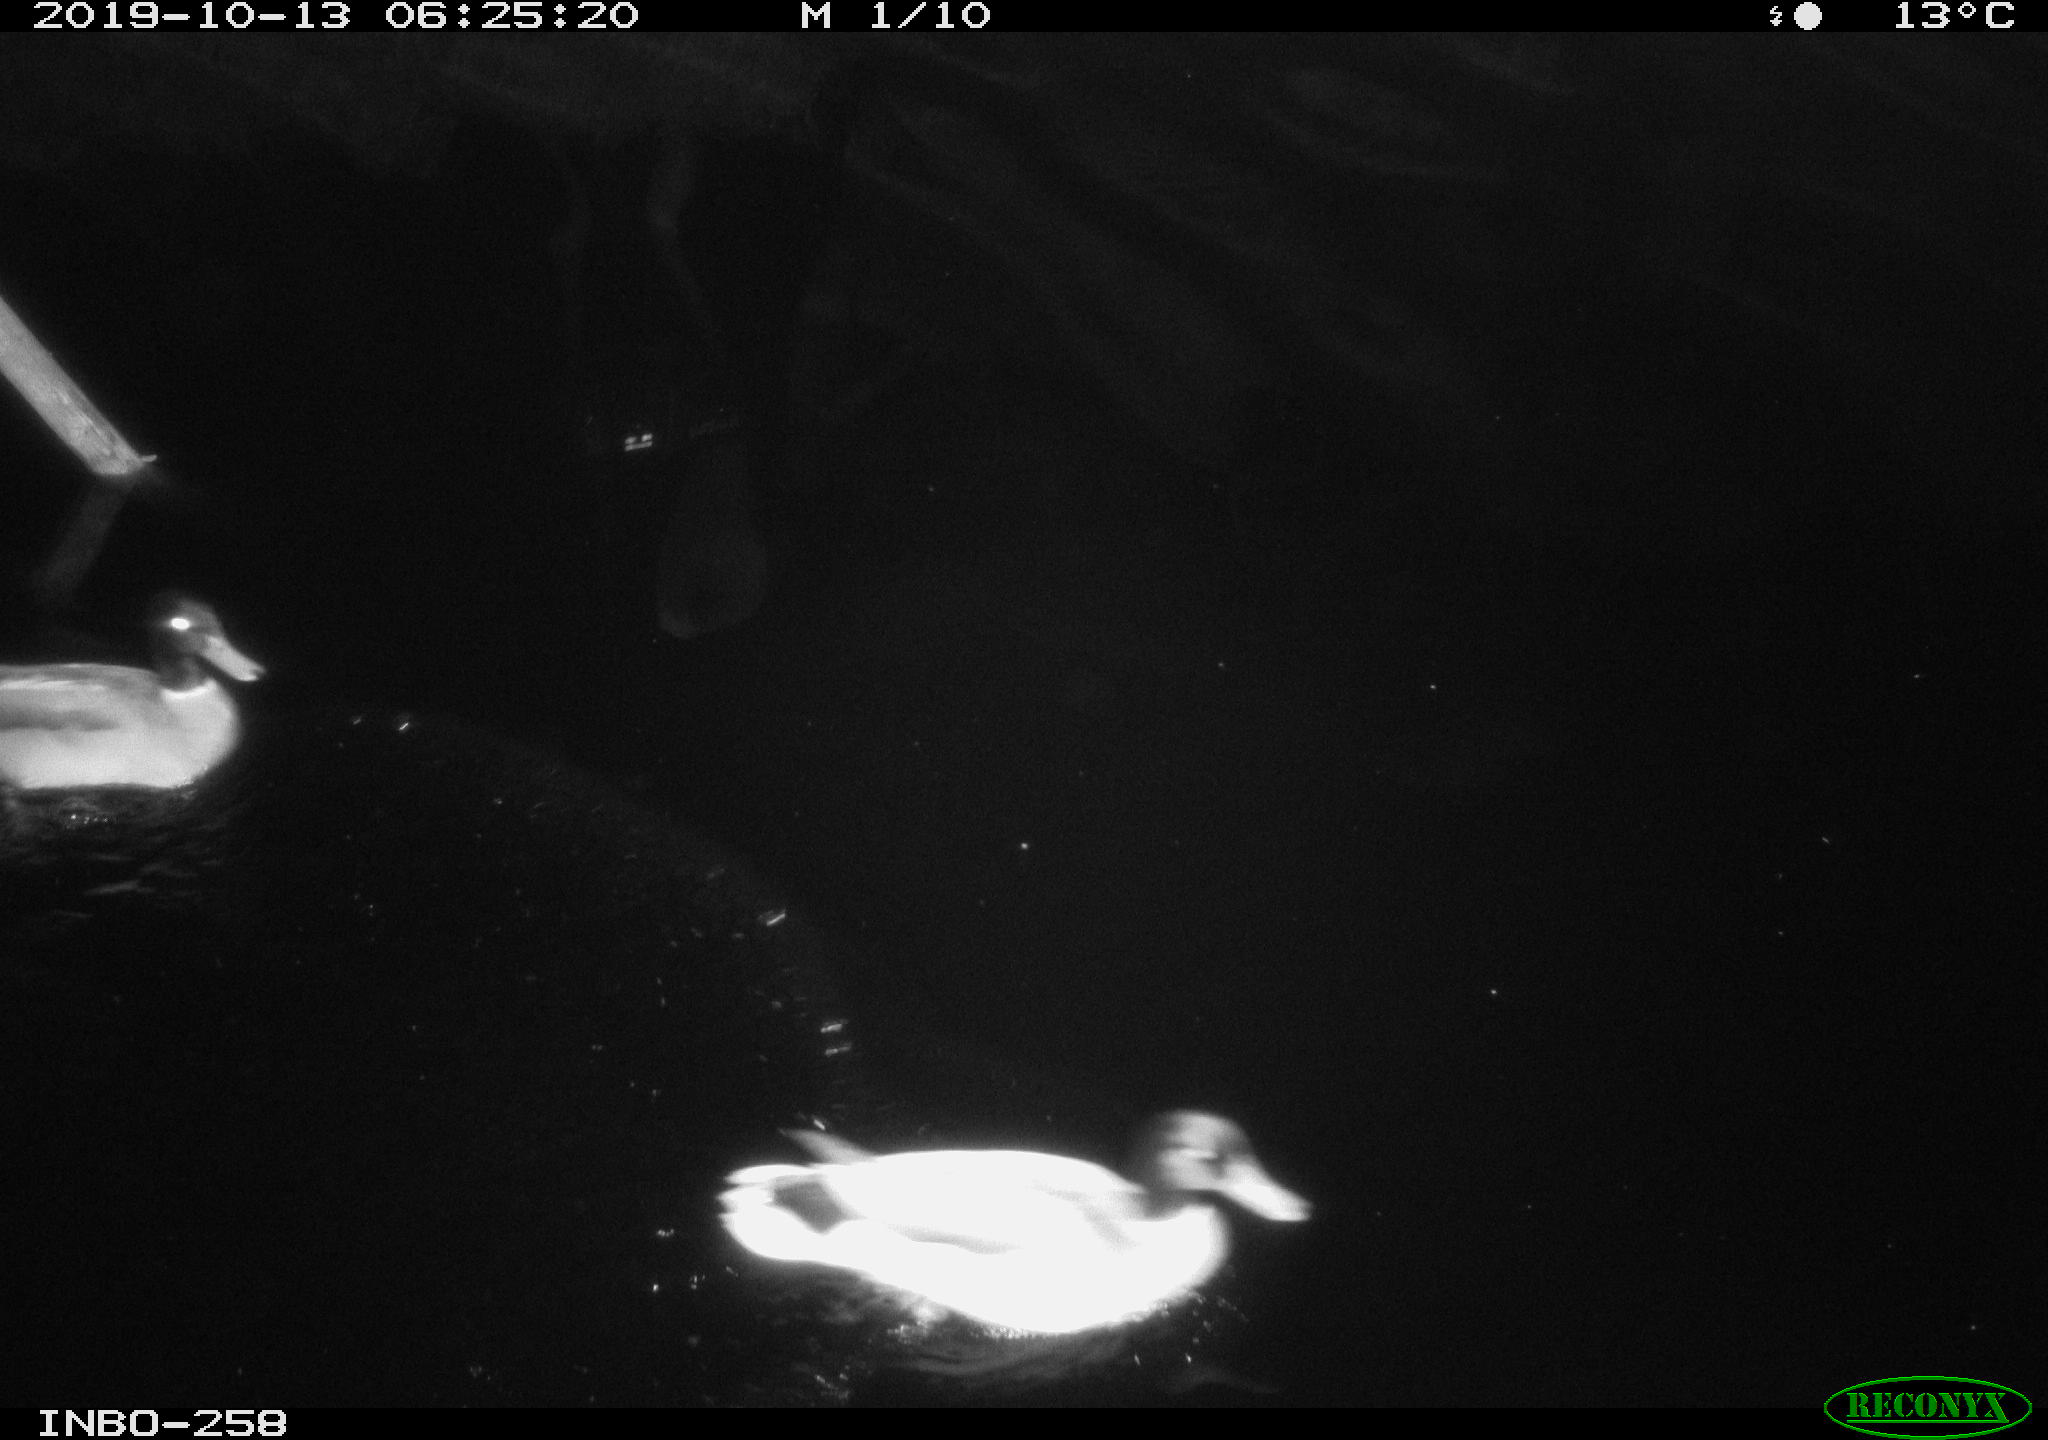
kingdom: Animalia
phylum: Chordata
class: Aves
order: Anseriformes
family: Anatidae
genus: Anas
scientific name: Anas platyrhynchos
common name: Mallard
